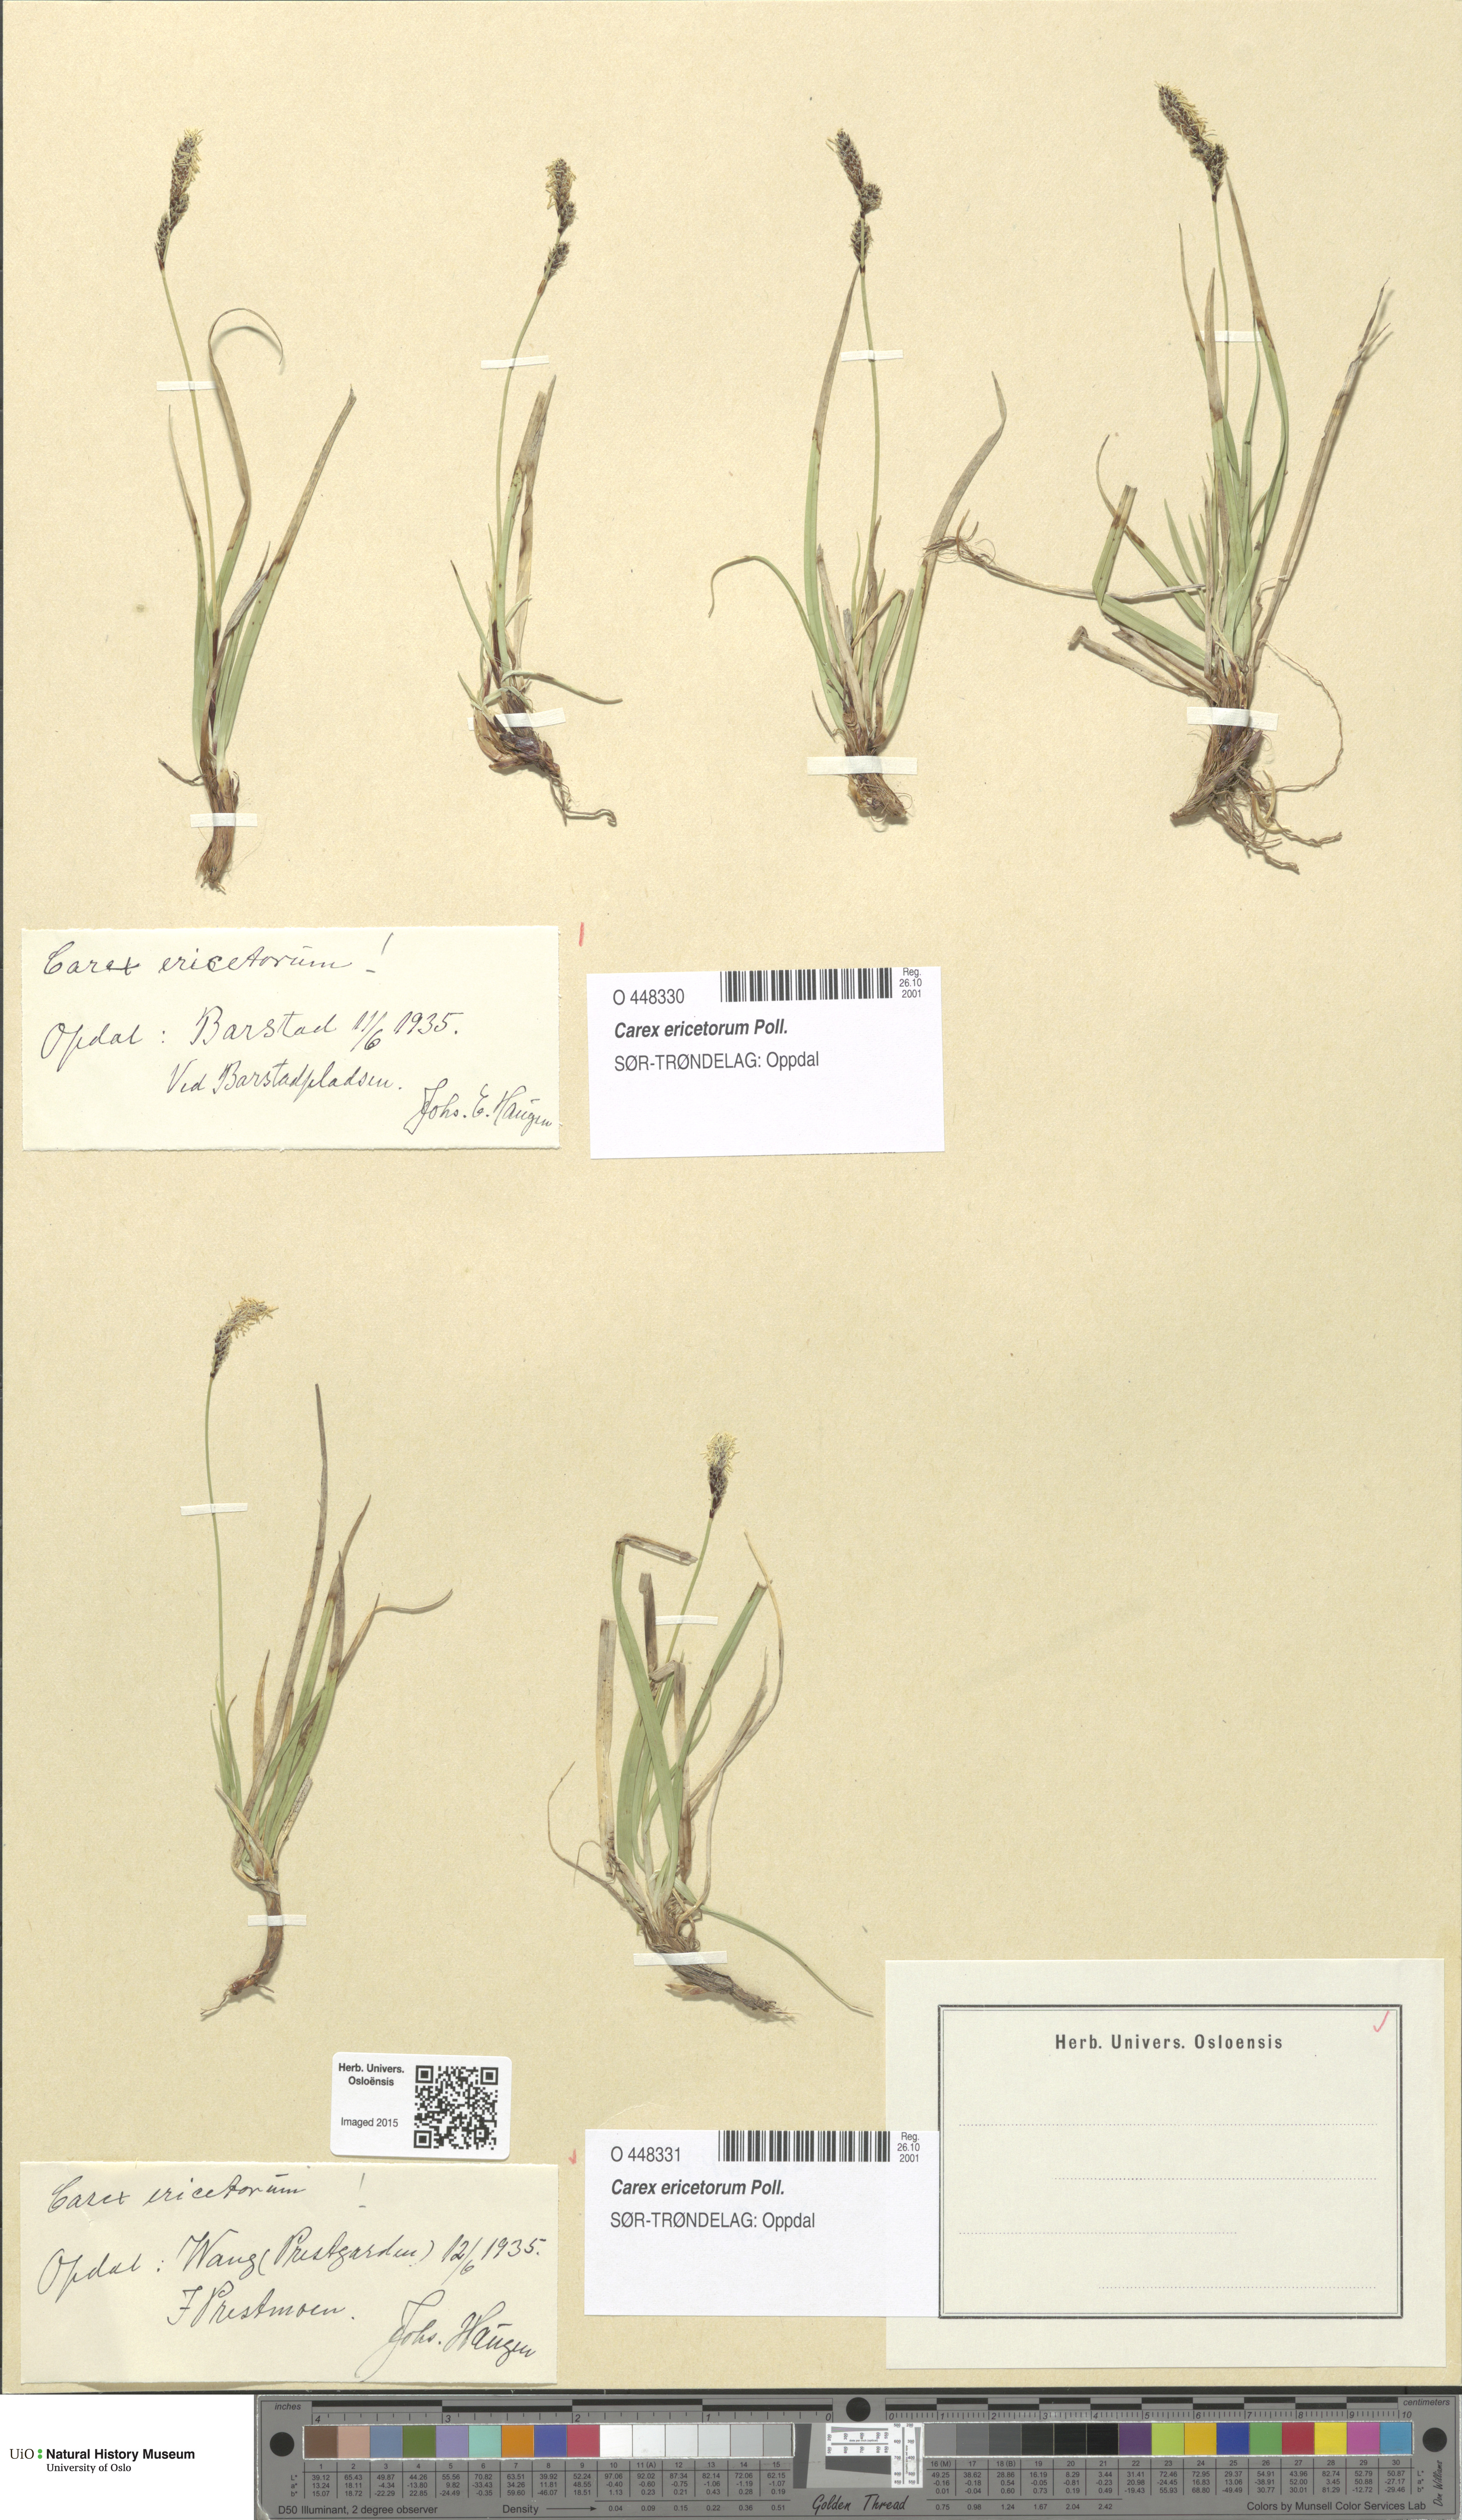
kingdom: Plantae
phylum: Tracheophyta
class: Liliopsida
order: Poales
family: Cyperaceae
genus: Carex
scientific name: Carex ericetorum
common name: Rare spring-sedge
